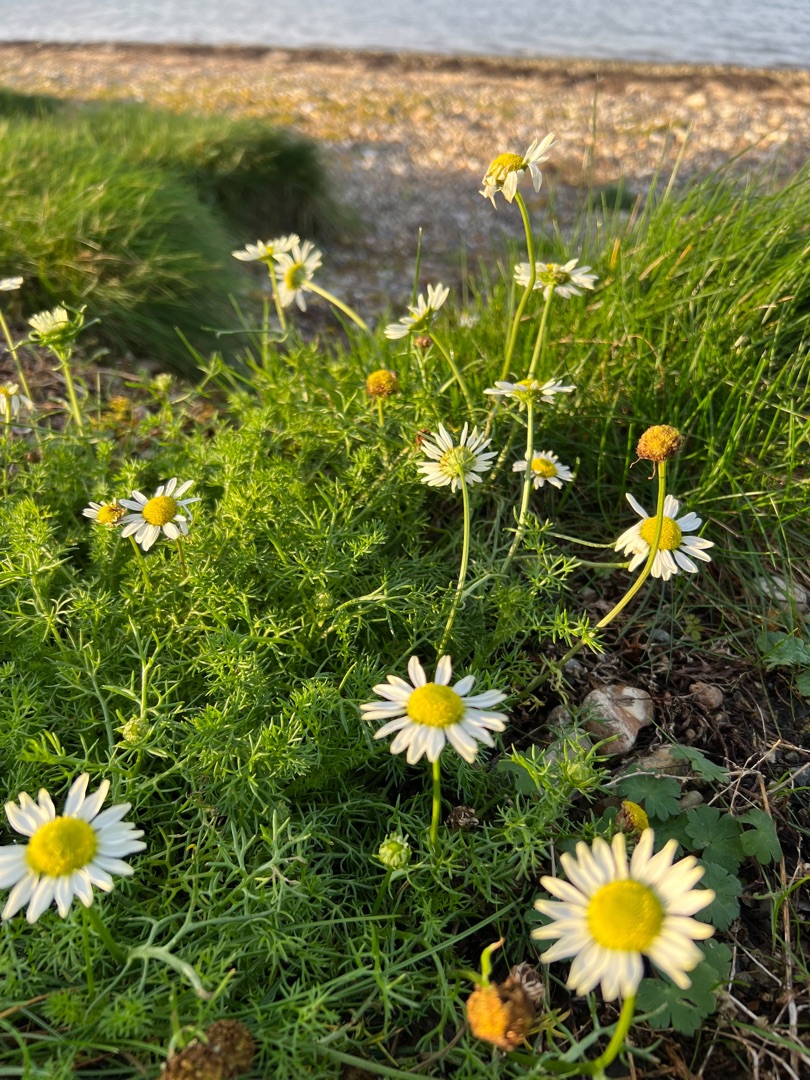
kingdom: Plantae
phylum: Tracheophyta
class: Magnoliopsida
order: Asterales
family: Asteraceae
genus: Tripleurospermum
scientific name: Tripleurospermum maritimum
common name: Strand-kamille
